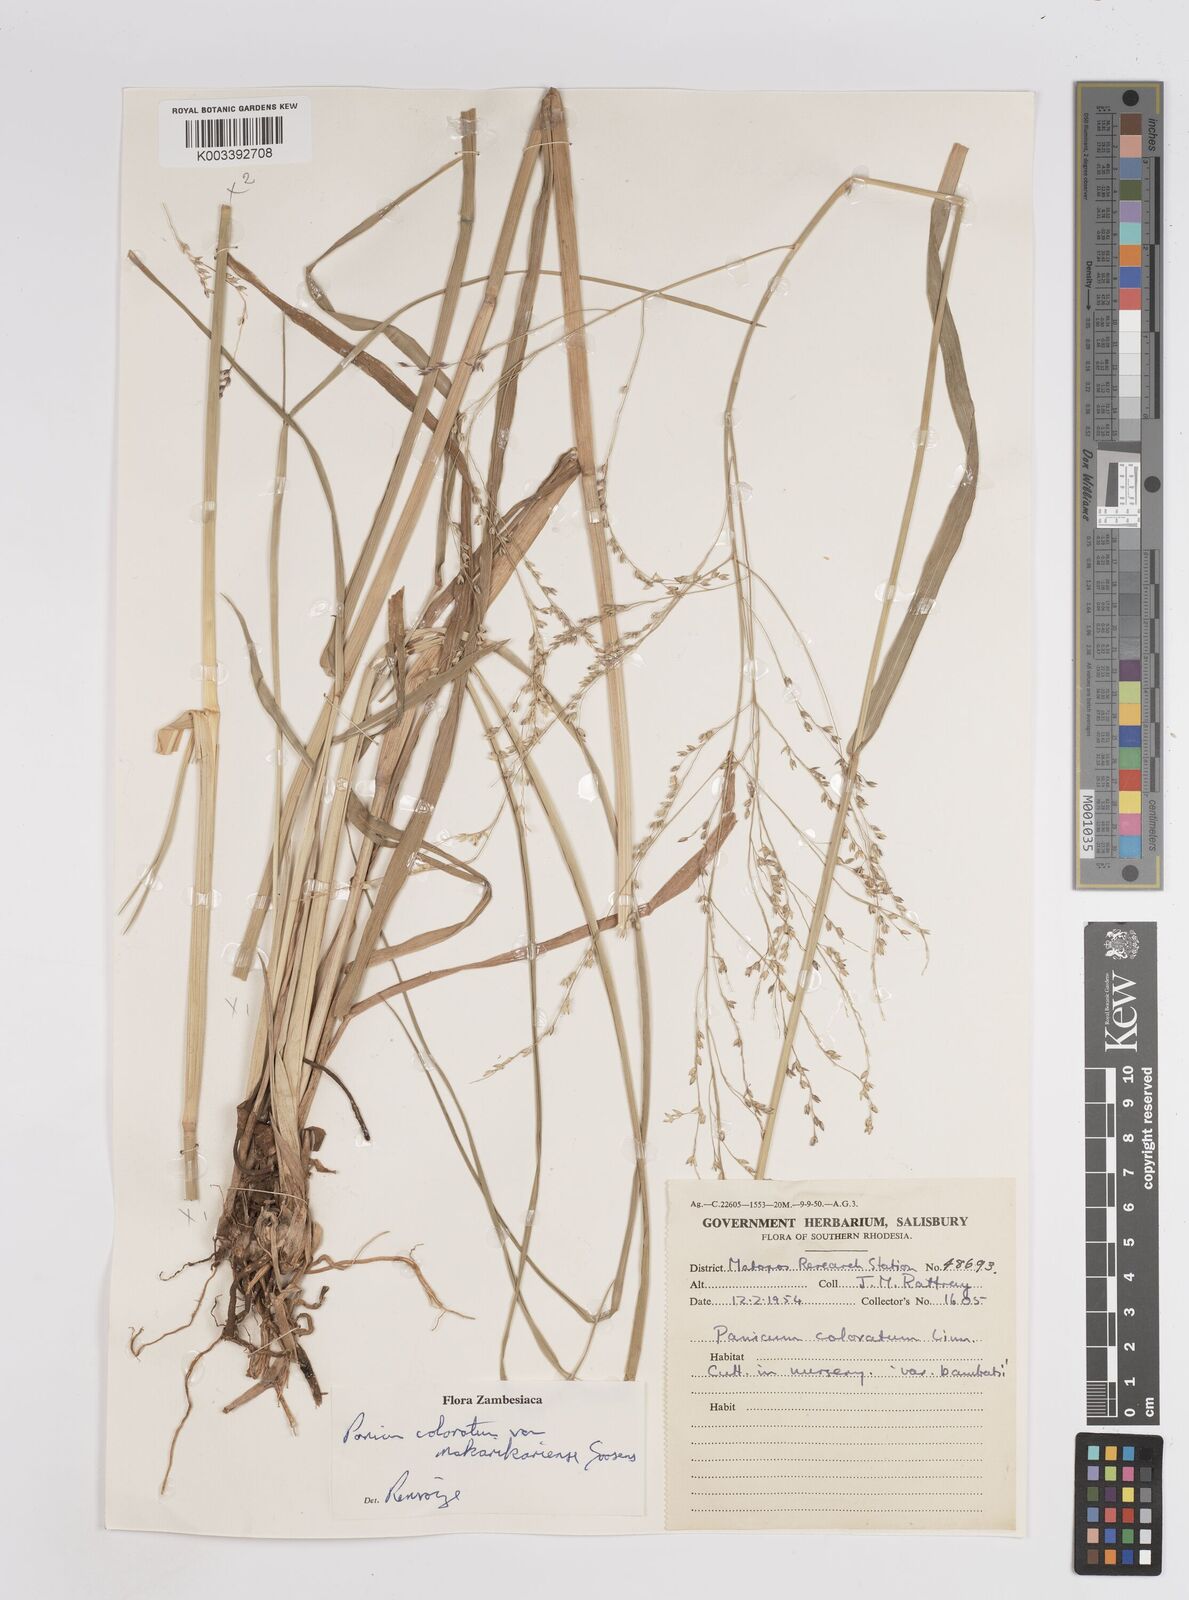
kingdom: Plantae
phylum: Tracheophyta
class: Liliopsida
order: Poales
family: Poaceae
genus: Panicum
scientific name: Panicum coloratum
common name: Kleingrass
